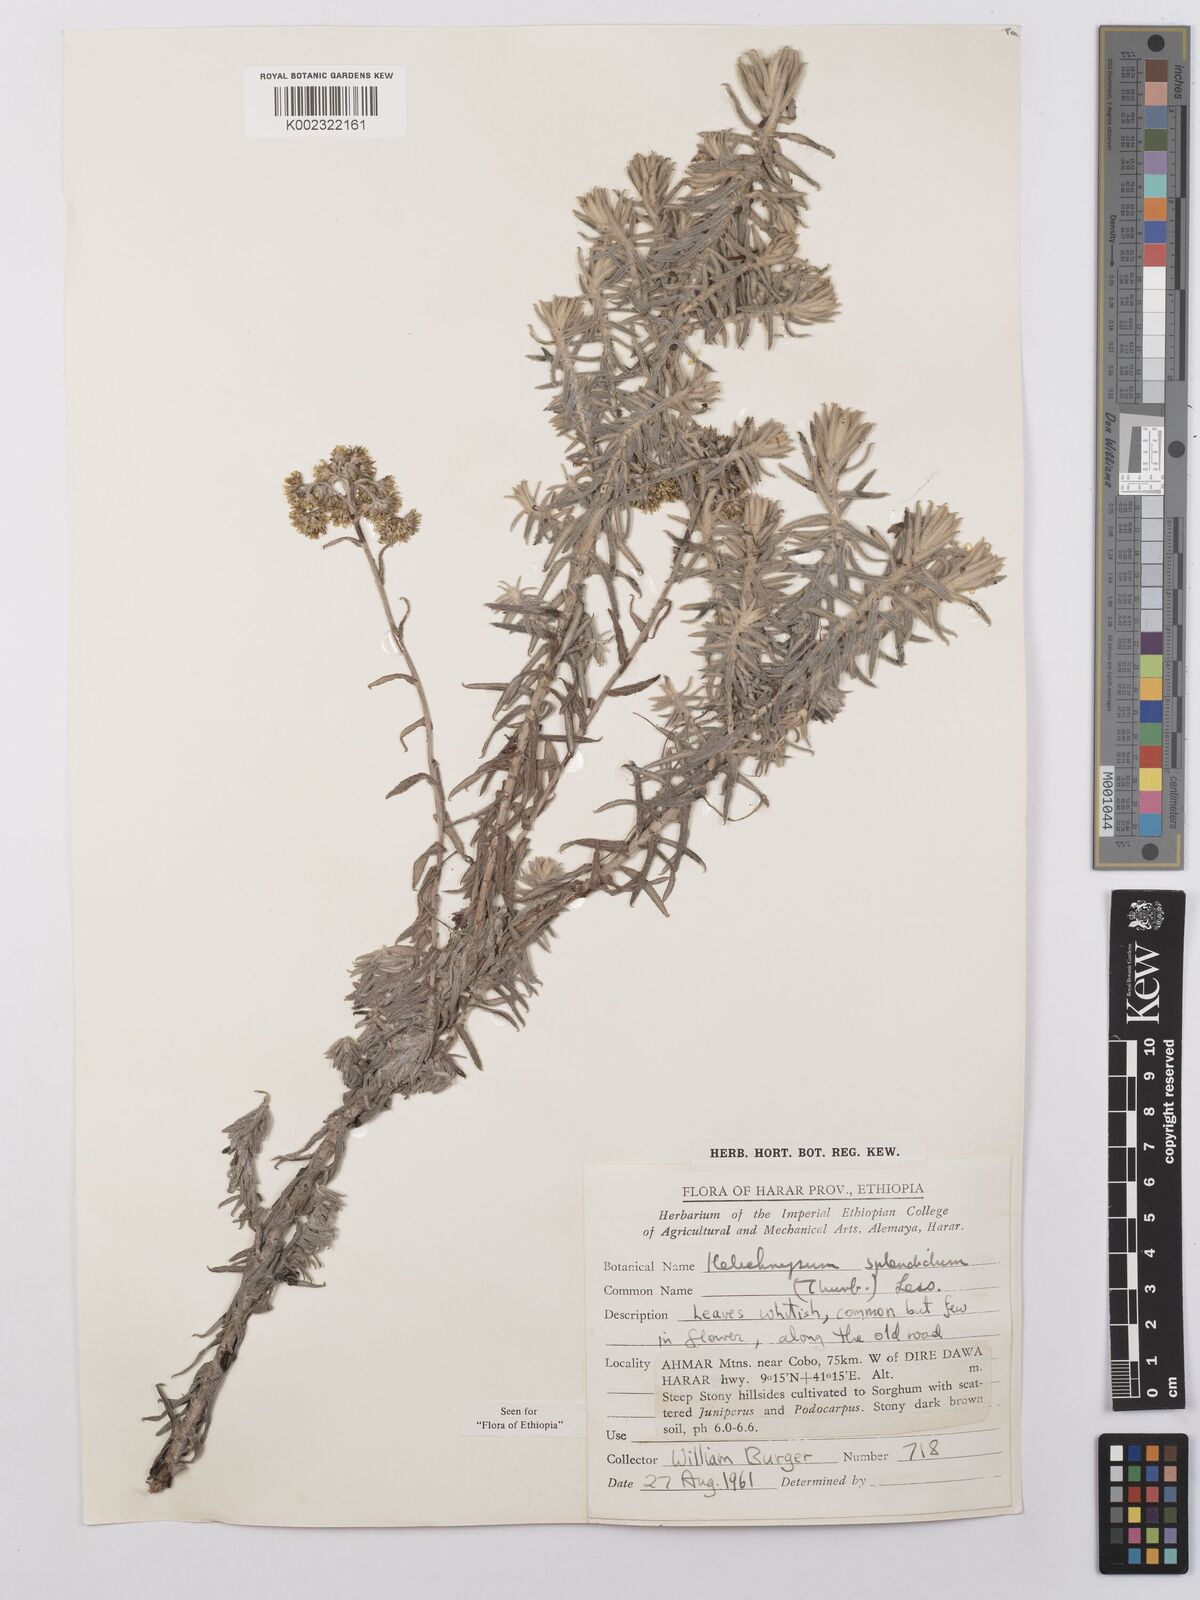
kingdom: Plantae
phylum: Tracheophyta
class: Magnoliopsida
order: Asterales
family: Asteraceae
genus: Helichrysum
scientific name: Helichrysum splendidum
